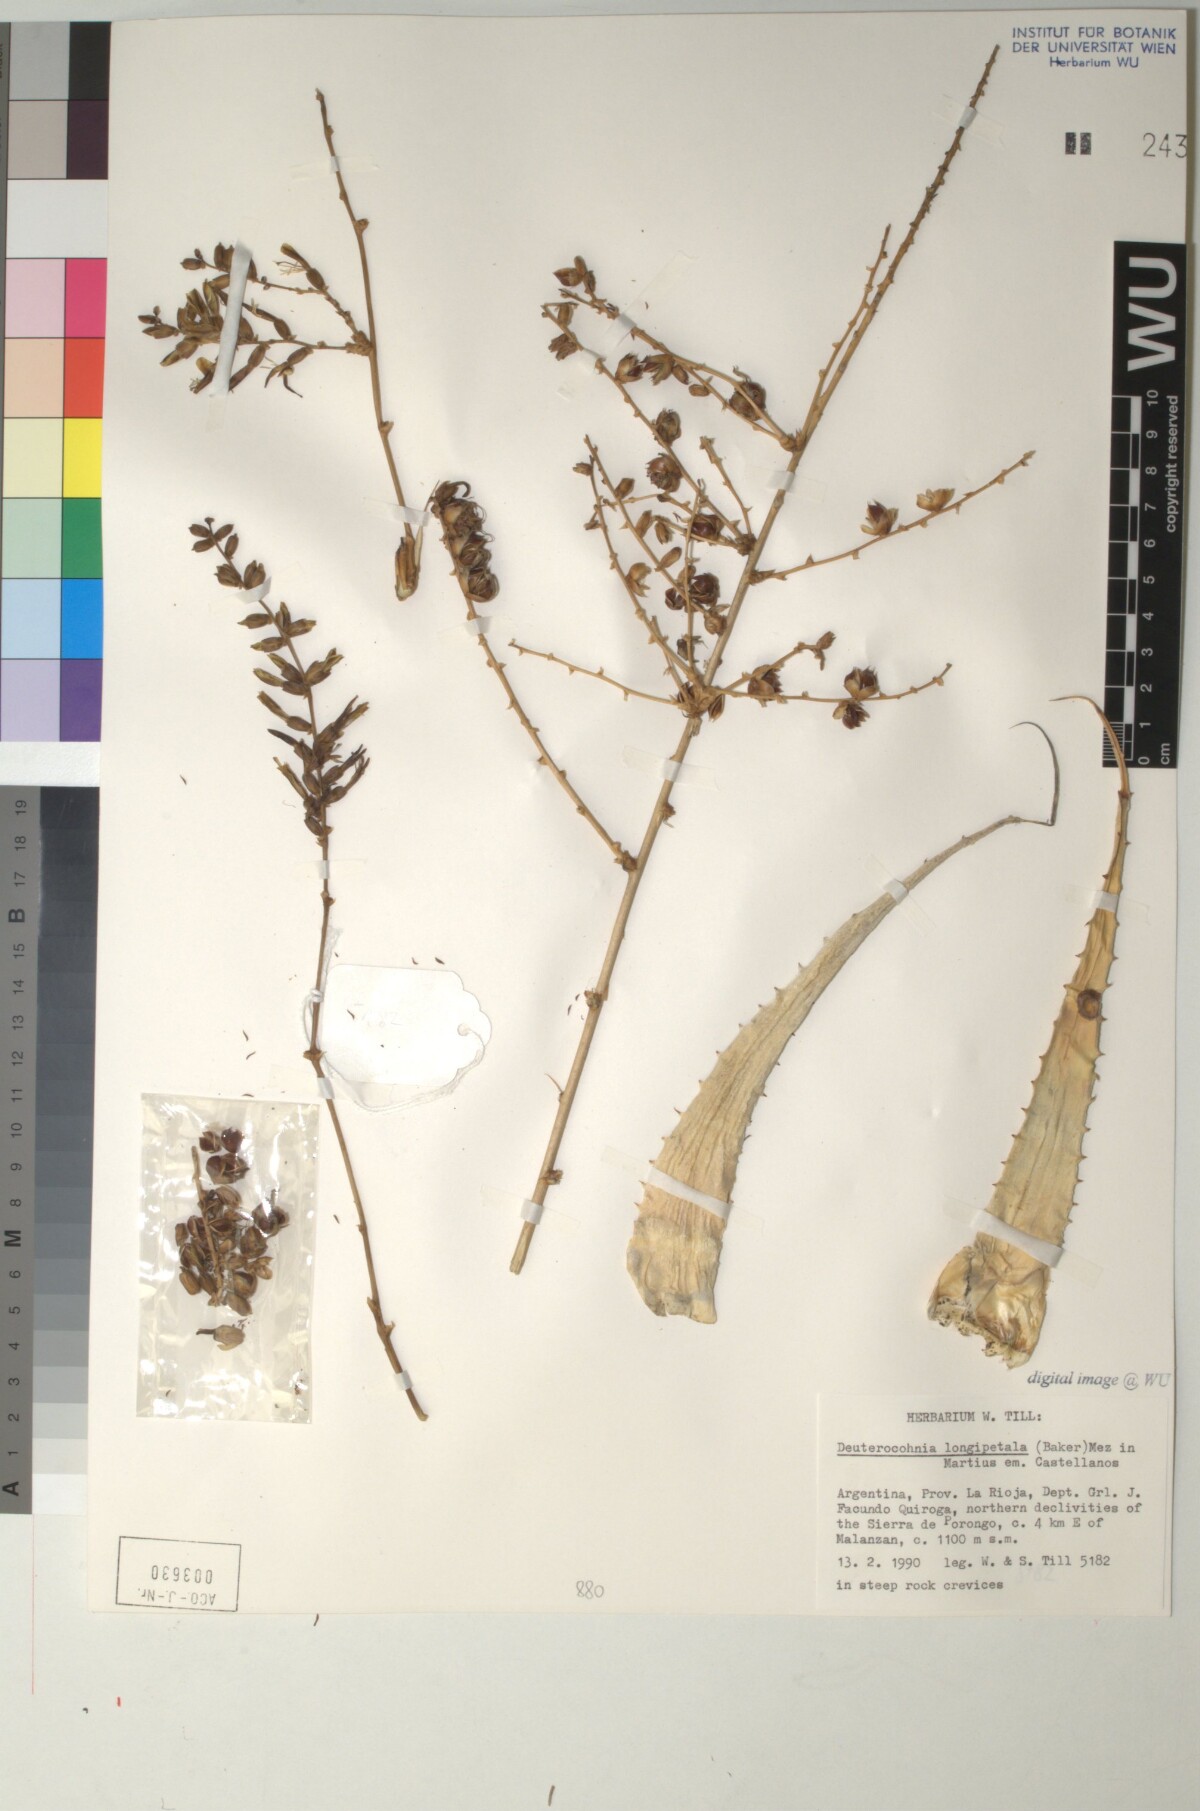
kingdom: Plantae
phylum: Tracheophyta
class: Liliopsida
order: Poales
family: Bromeliaceae
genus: Deuterocohnia
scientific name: Deuterocohnia longipetala
